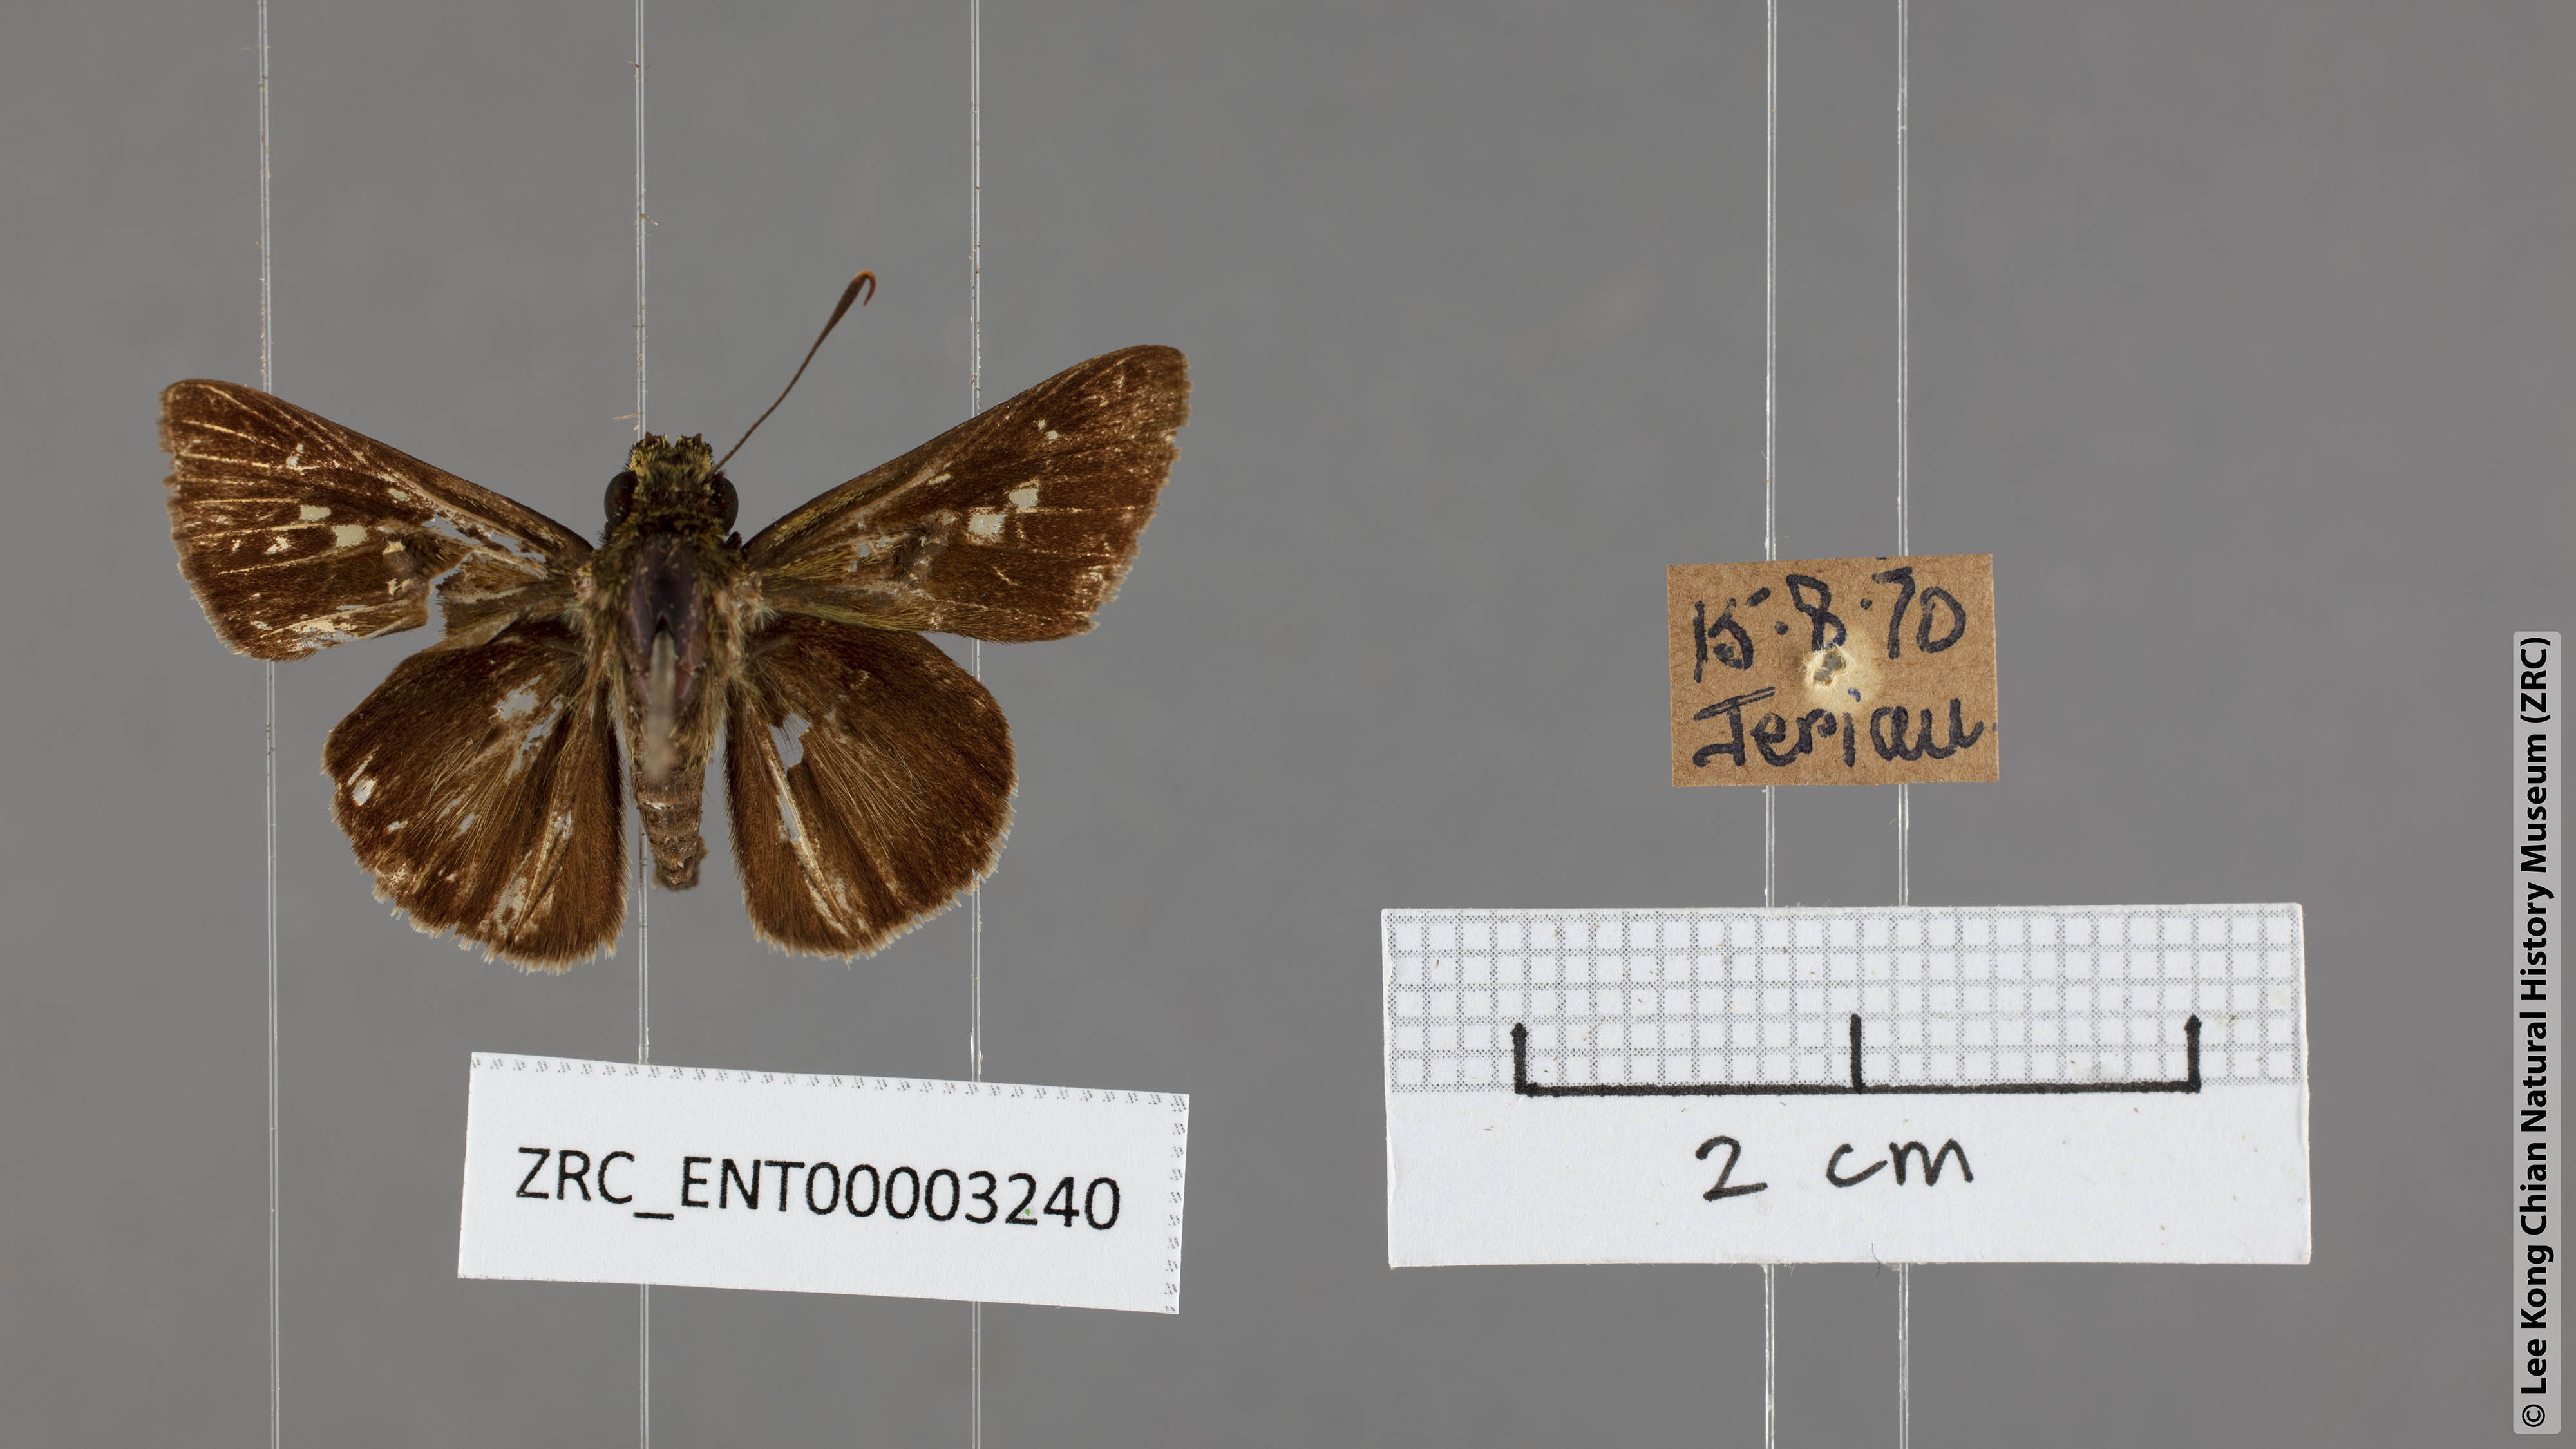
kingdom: Animalia
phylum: Arthropoda
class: Insecta
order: Lepidoptera
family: Hesperiidae
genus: Halpe
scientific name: Halpe pelethronix
